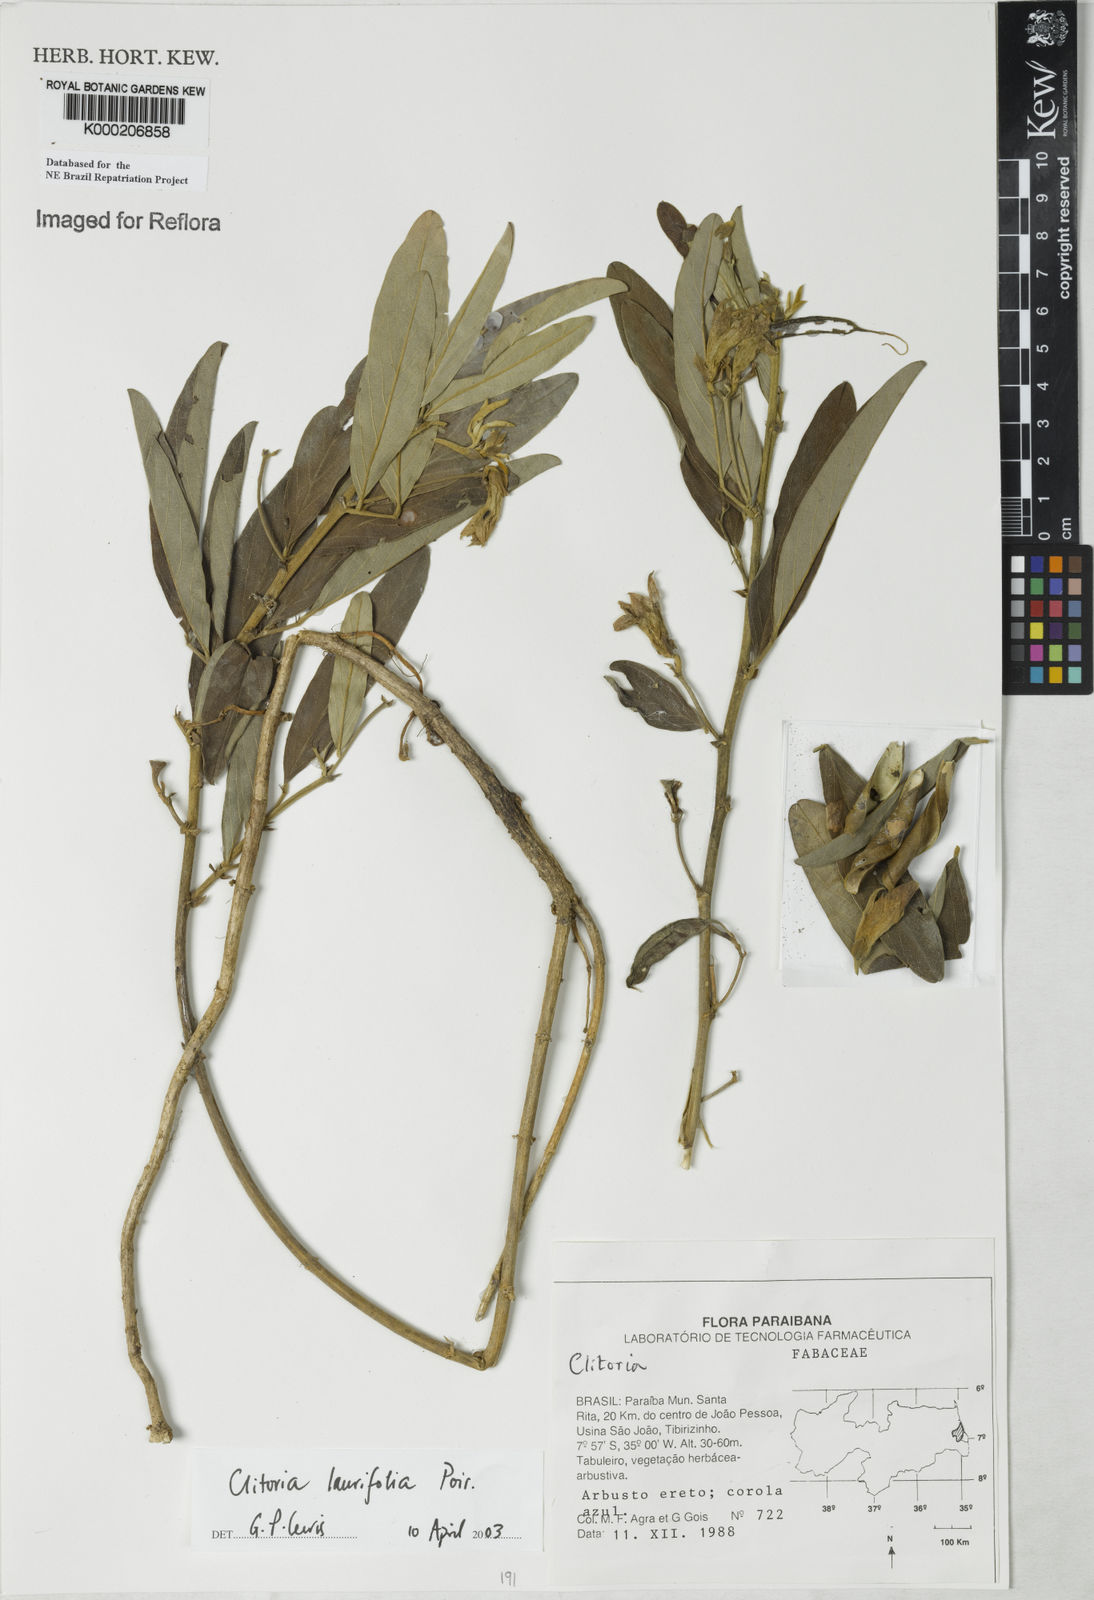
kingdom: Plantae
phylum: Tracheophyta
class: Magnoliopsida
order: Fabales
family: Fabaceae
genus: Clitoria
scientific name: Clitoria laurifolia
